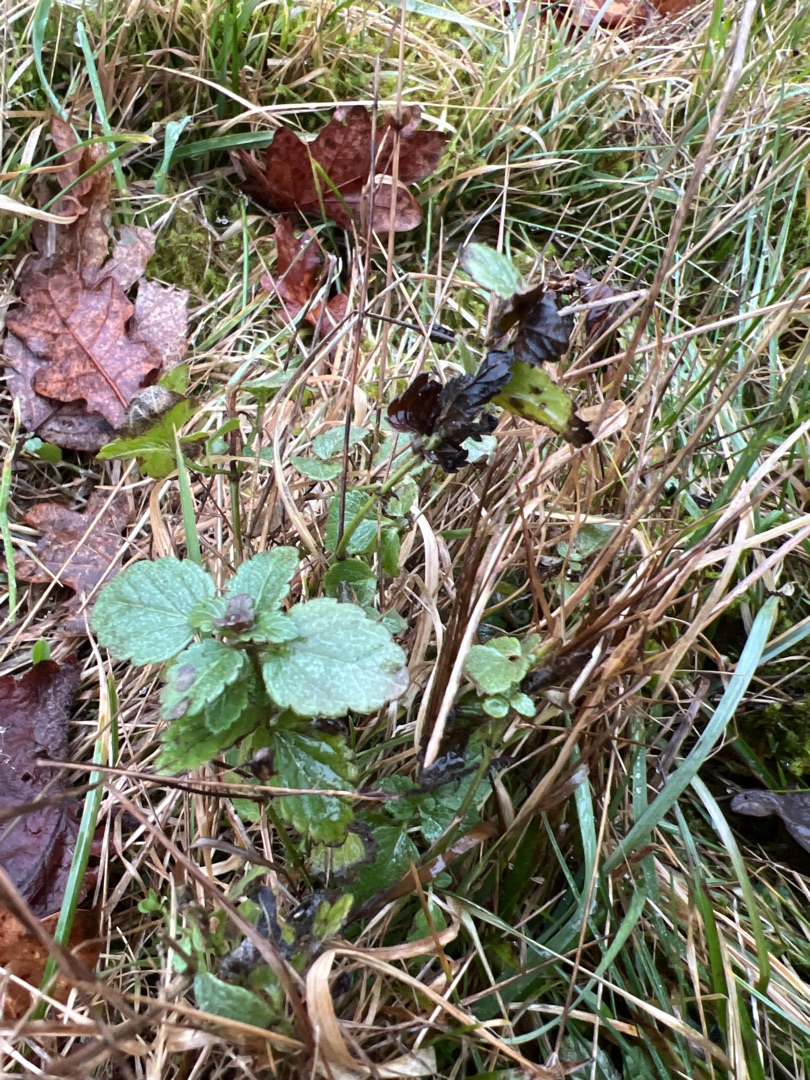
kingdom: Plantae
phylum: Tracheophyta
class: Magnoliopsida
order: Lamiales
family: Plantaginaceae
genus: Veronica
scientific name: Veronica chamaedrys
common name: Tveskægget ærenpris
